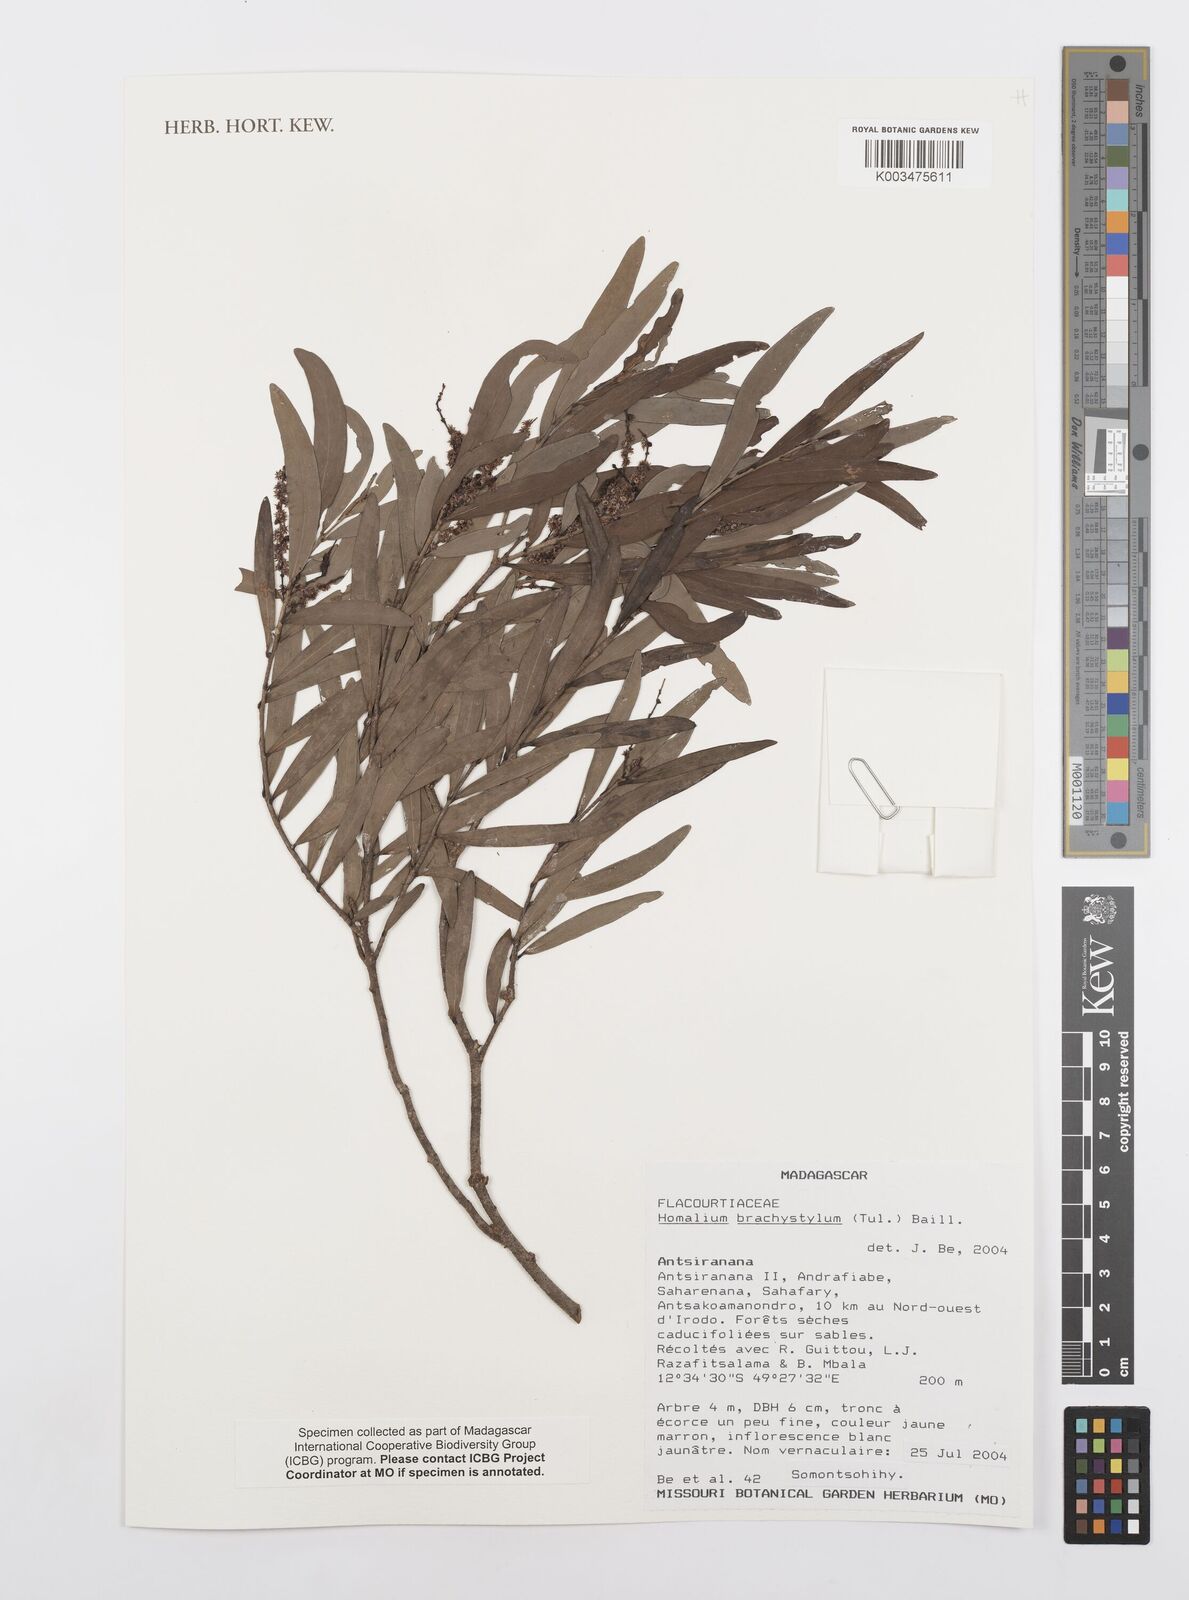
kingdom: Plantae
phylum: Tracheophyta
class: Magnoliopsida
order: Malpighiales
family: Salicaceae
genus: Homalium
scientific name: Homalium brachystylis
